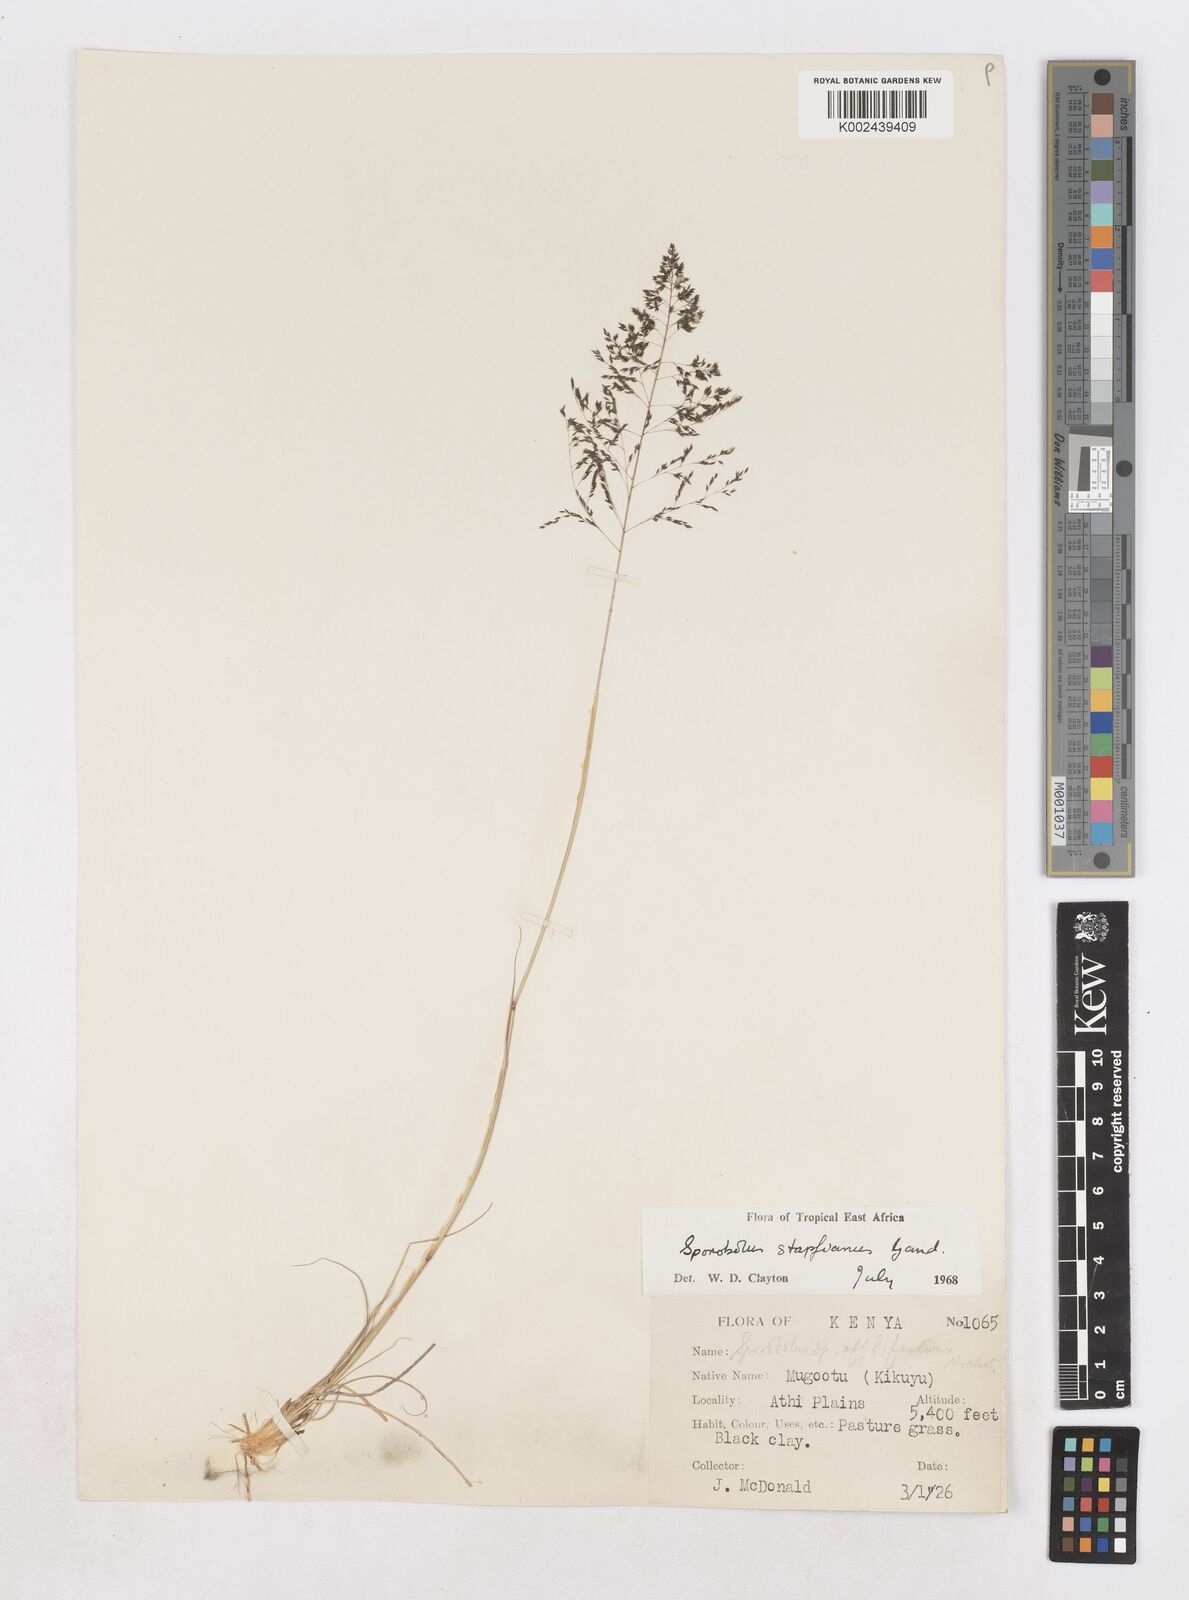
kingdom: Plantae
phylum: Tracheophyta
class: Liliopsida
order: Poales
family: Poaceae
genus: Sporobolus
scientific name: Sporobolus stapfianus
